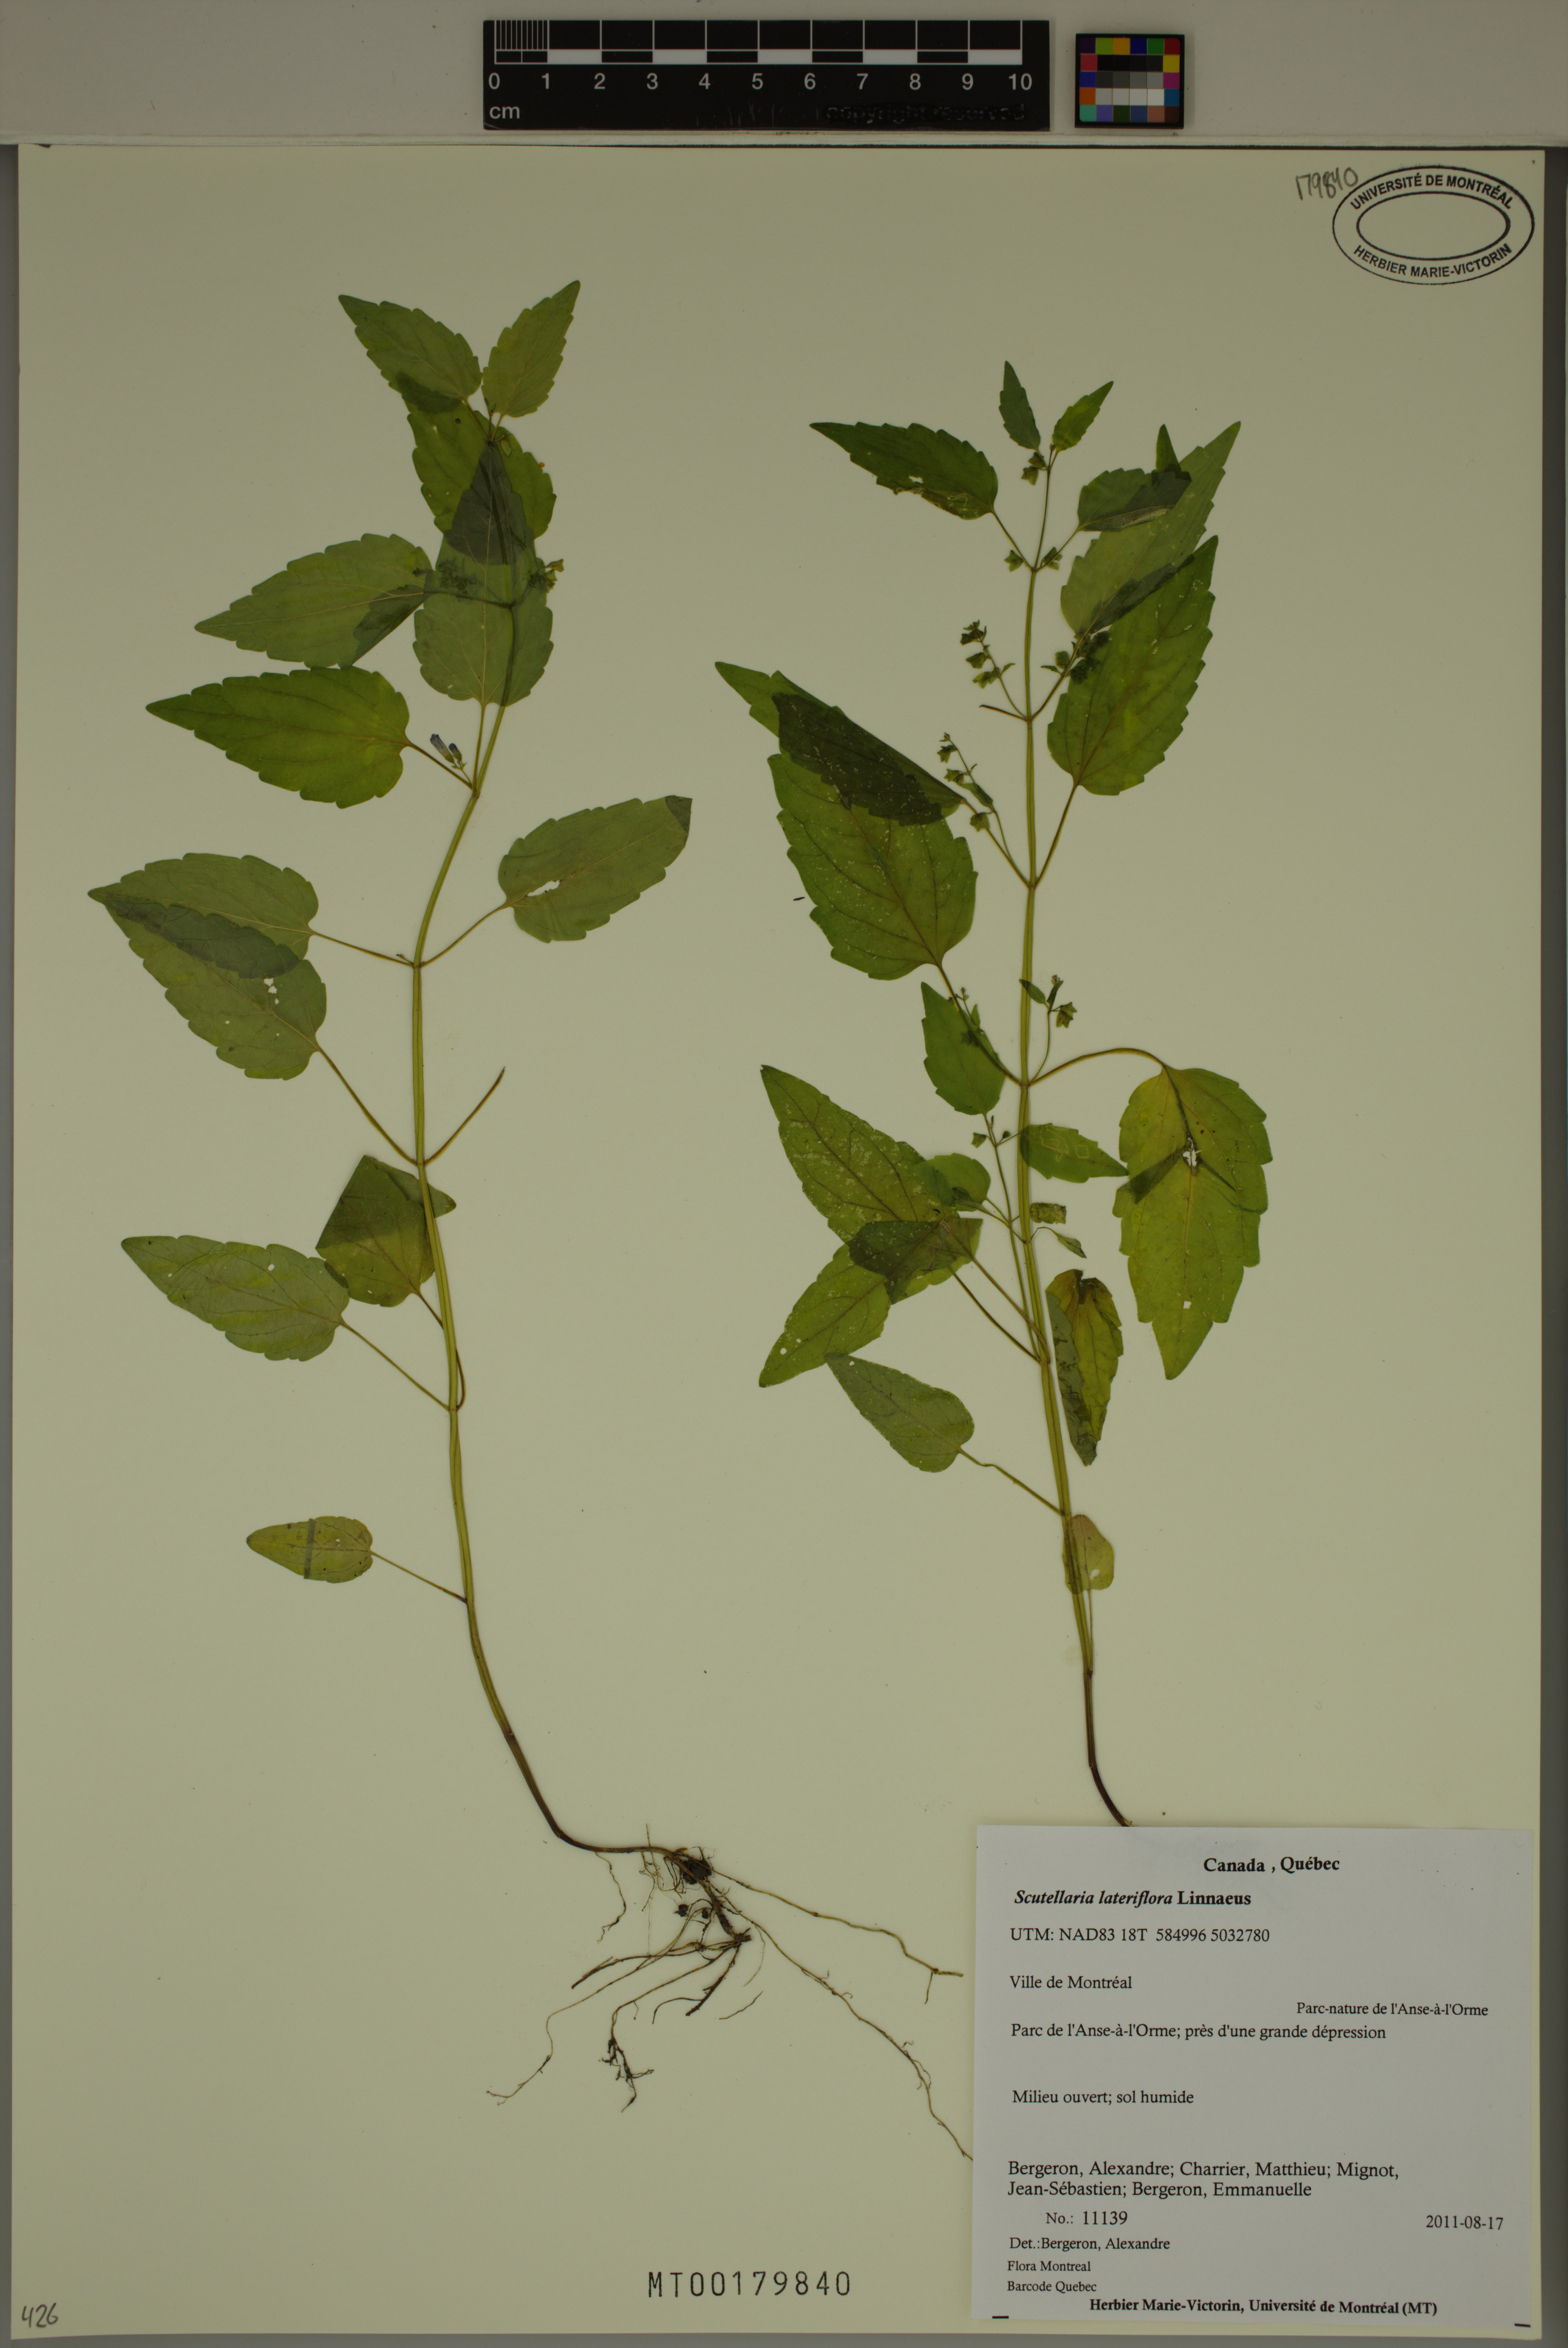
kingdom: Plantae
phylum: Tracheophyta
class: Magnoliopsida
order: Lamiales
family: Lamiaceae
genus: Scutellaria
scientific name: Scutellaria lateriflora
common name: Blue skullcap
